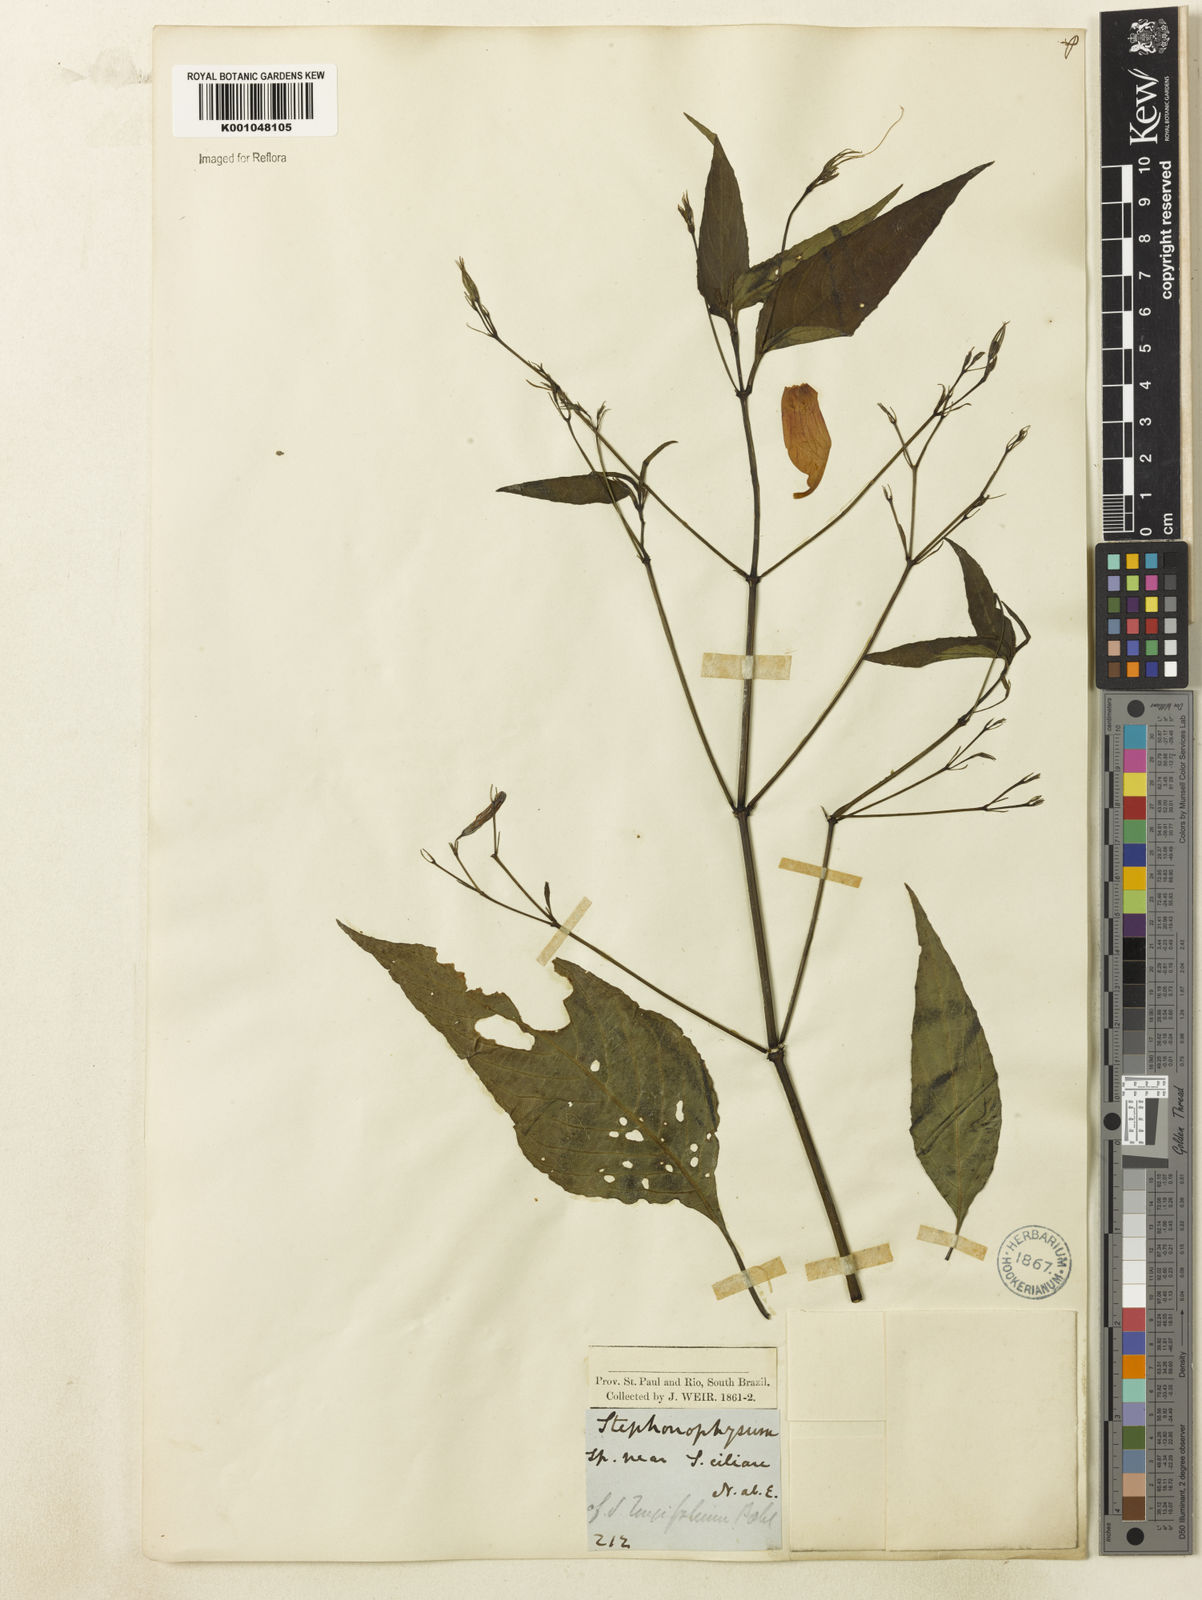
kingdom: Plantae
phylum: Tracheophyta
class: Magnoliopsida
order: Lamiales
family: Acanthaceae
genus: Ruellia
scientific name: Ruellia brevifolia
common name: Tropical wild petunia
